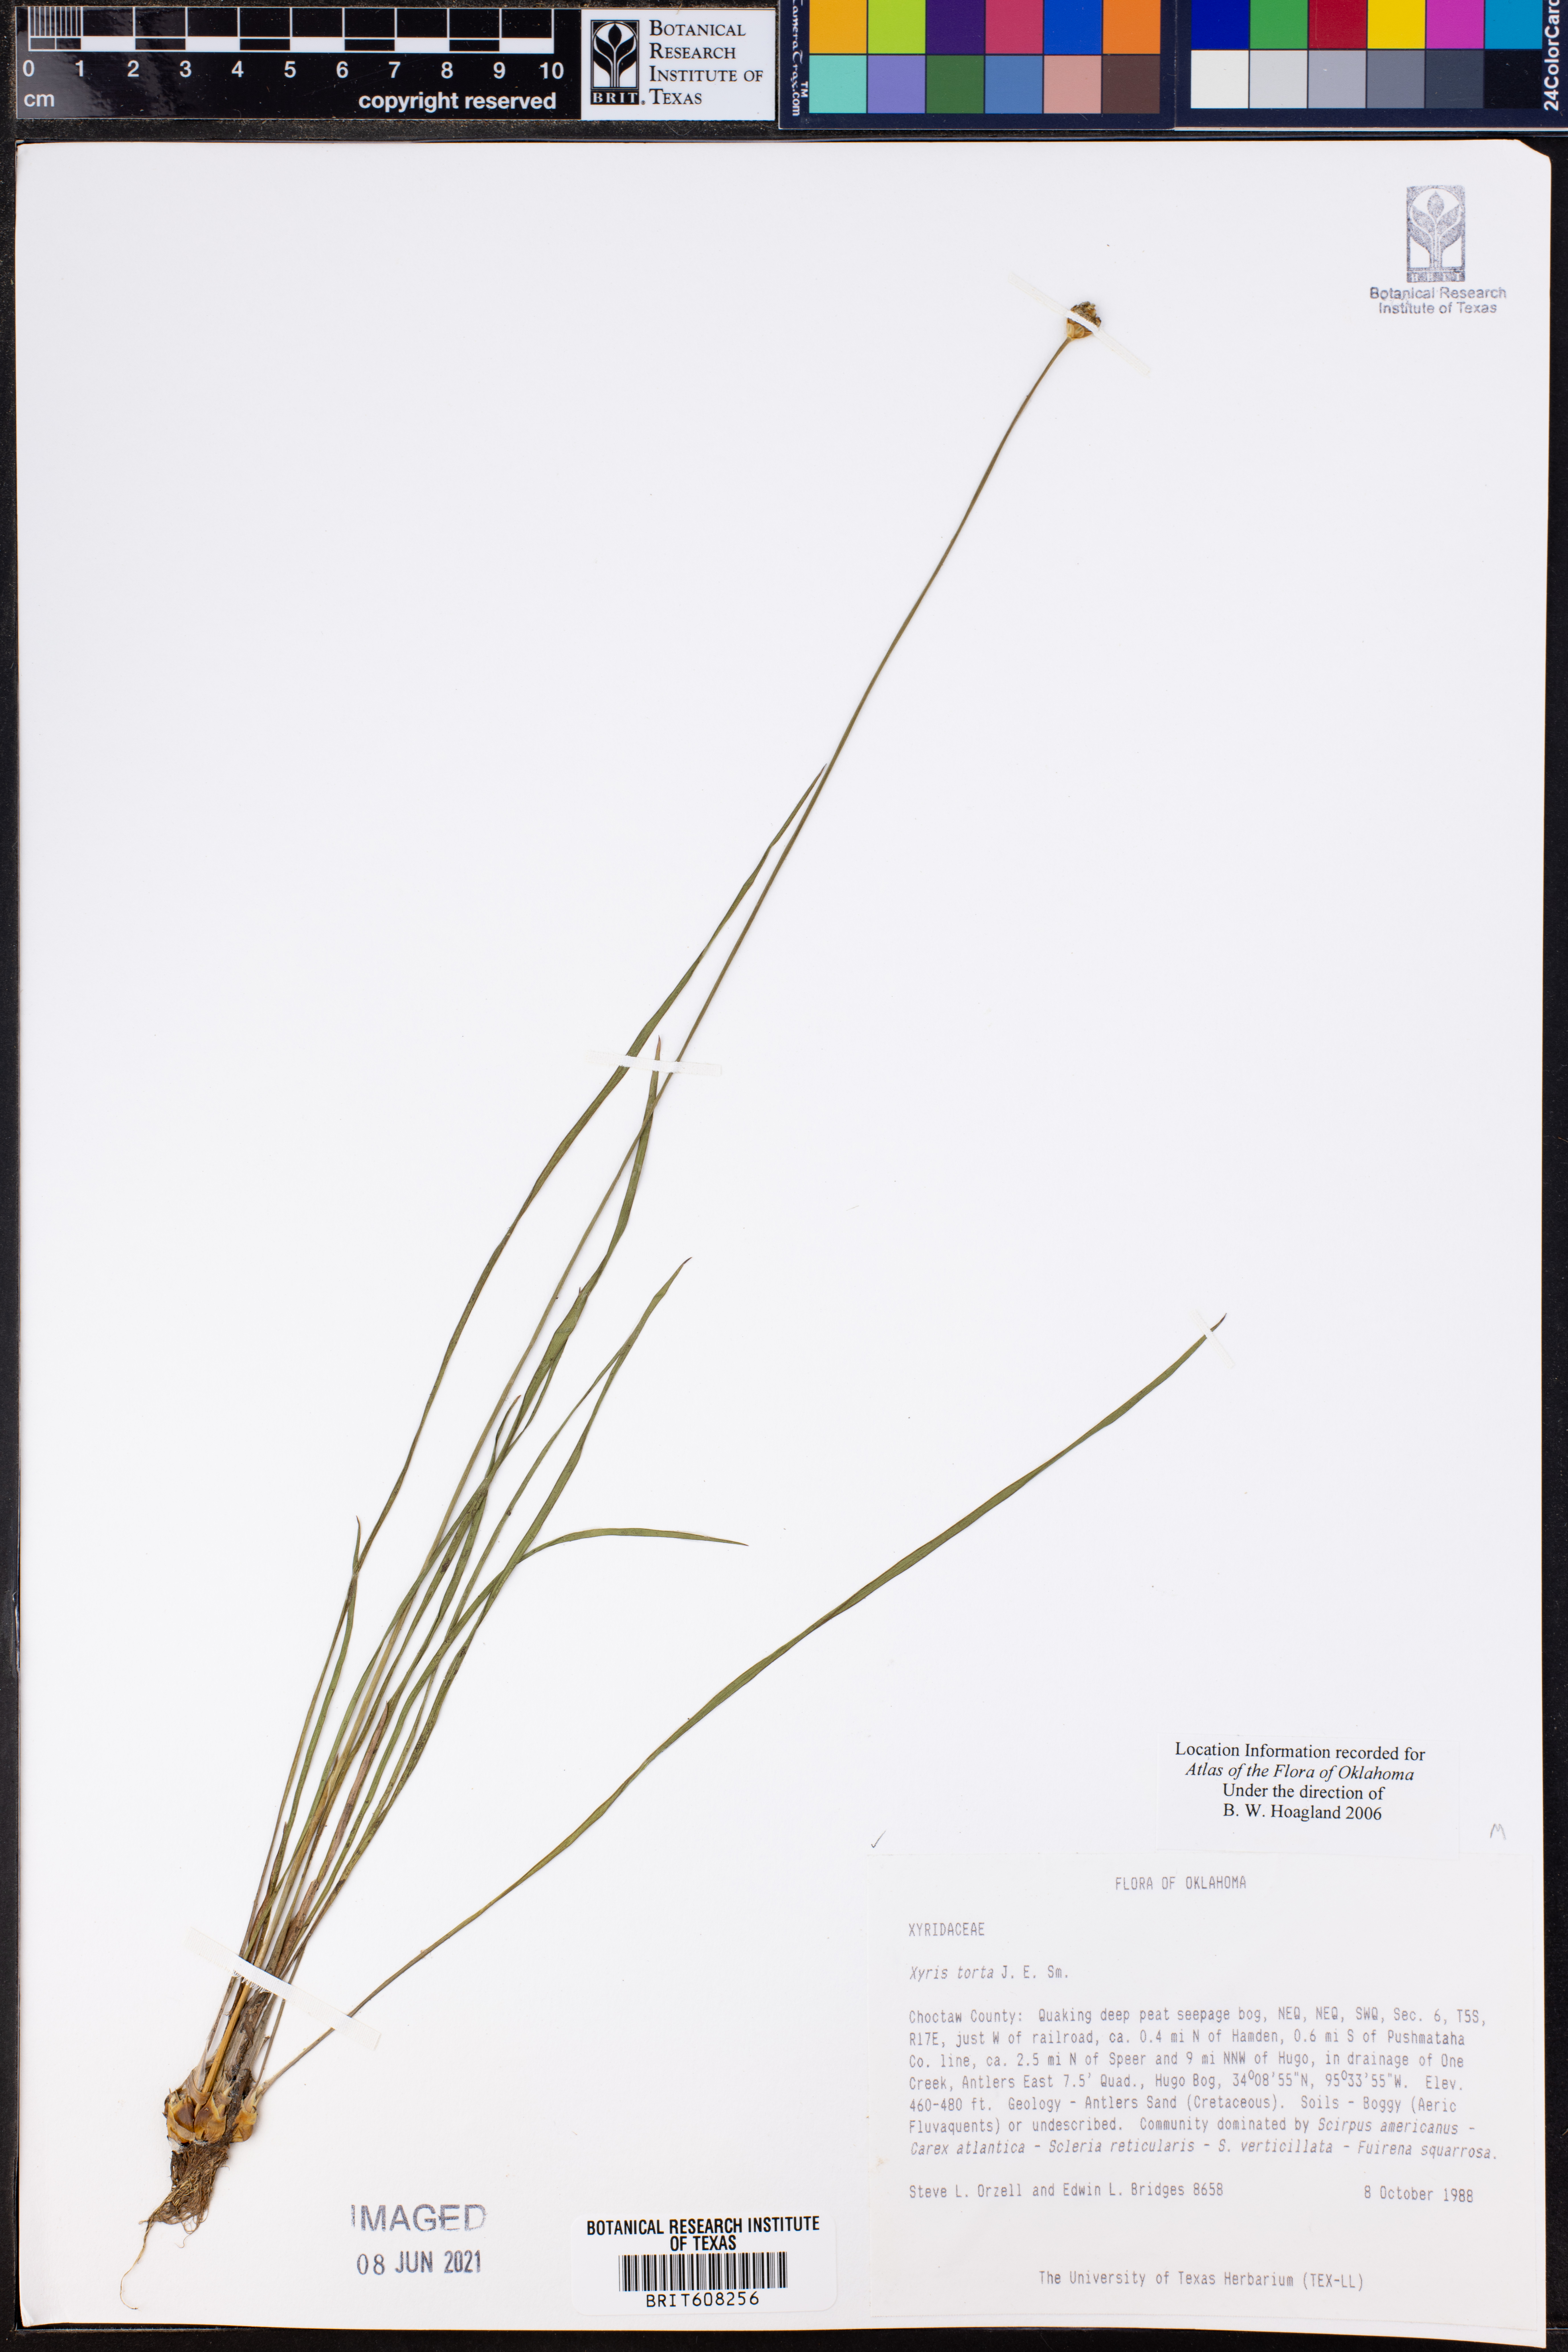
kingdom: Plantae
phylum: Tracheophyta
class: Liliopsida
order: Poales
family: Xyridaceae
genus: Xyris
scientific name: Xyris torta
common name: Common yelloweyed grass
